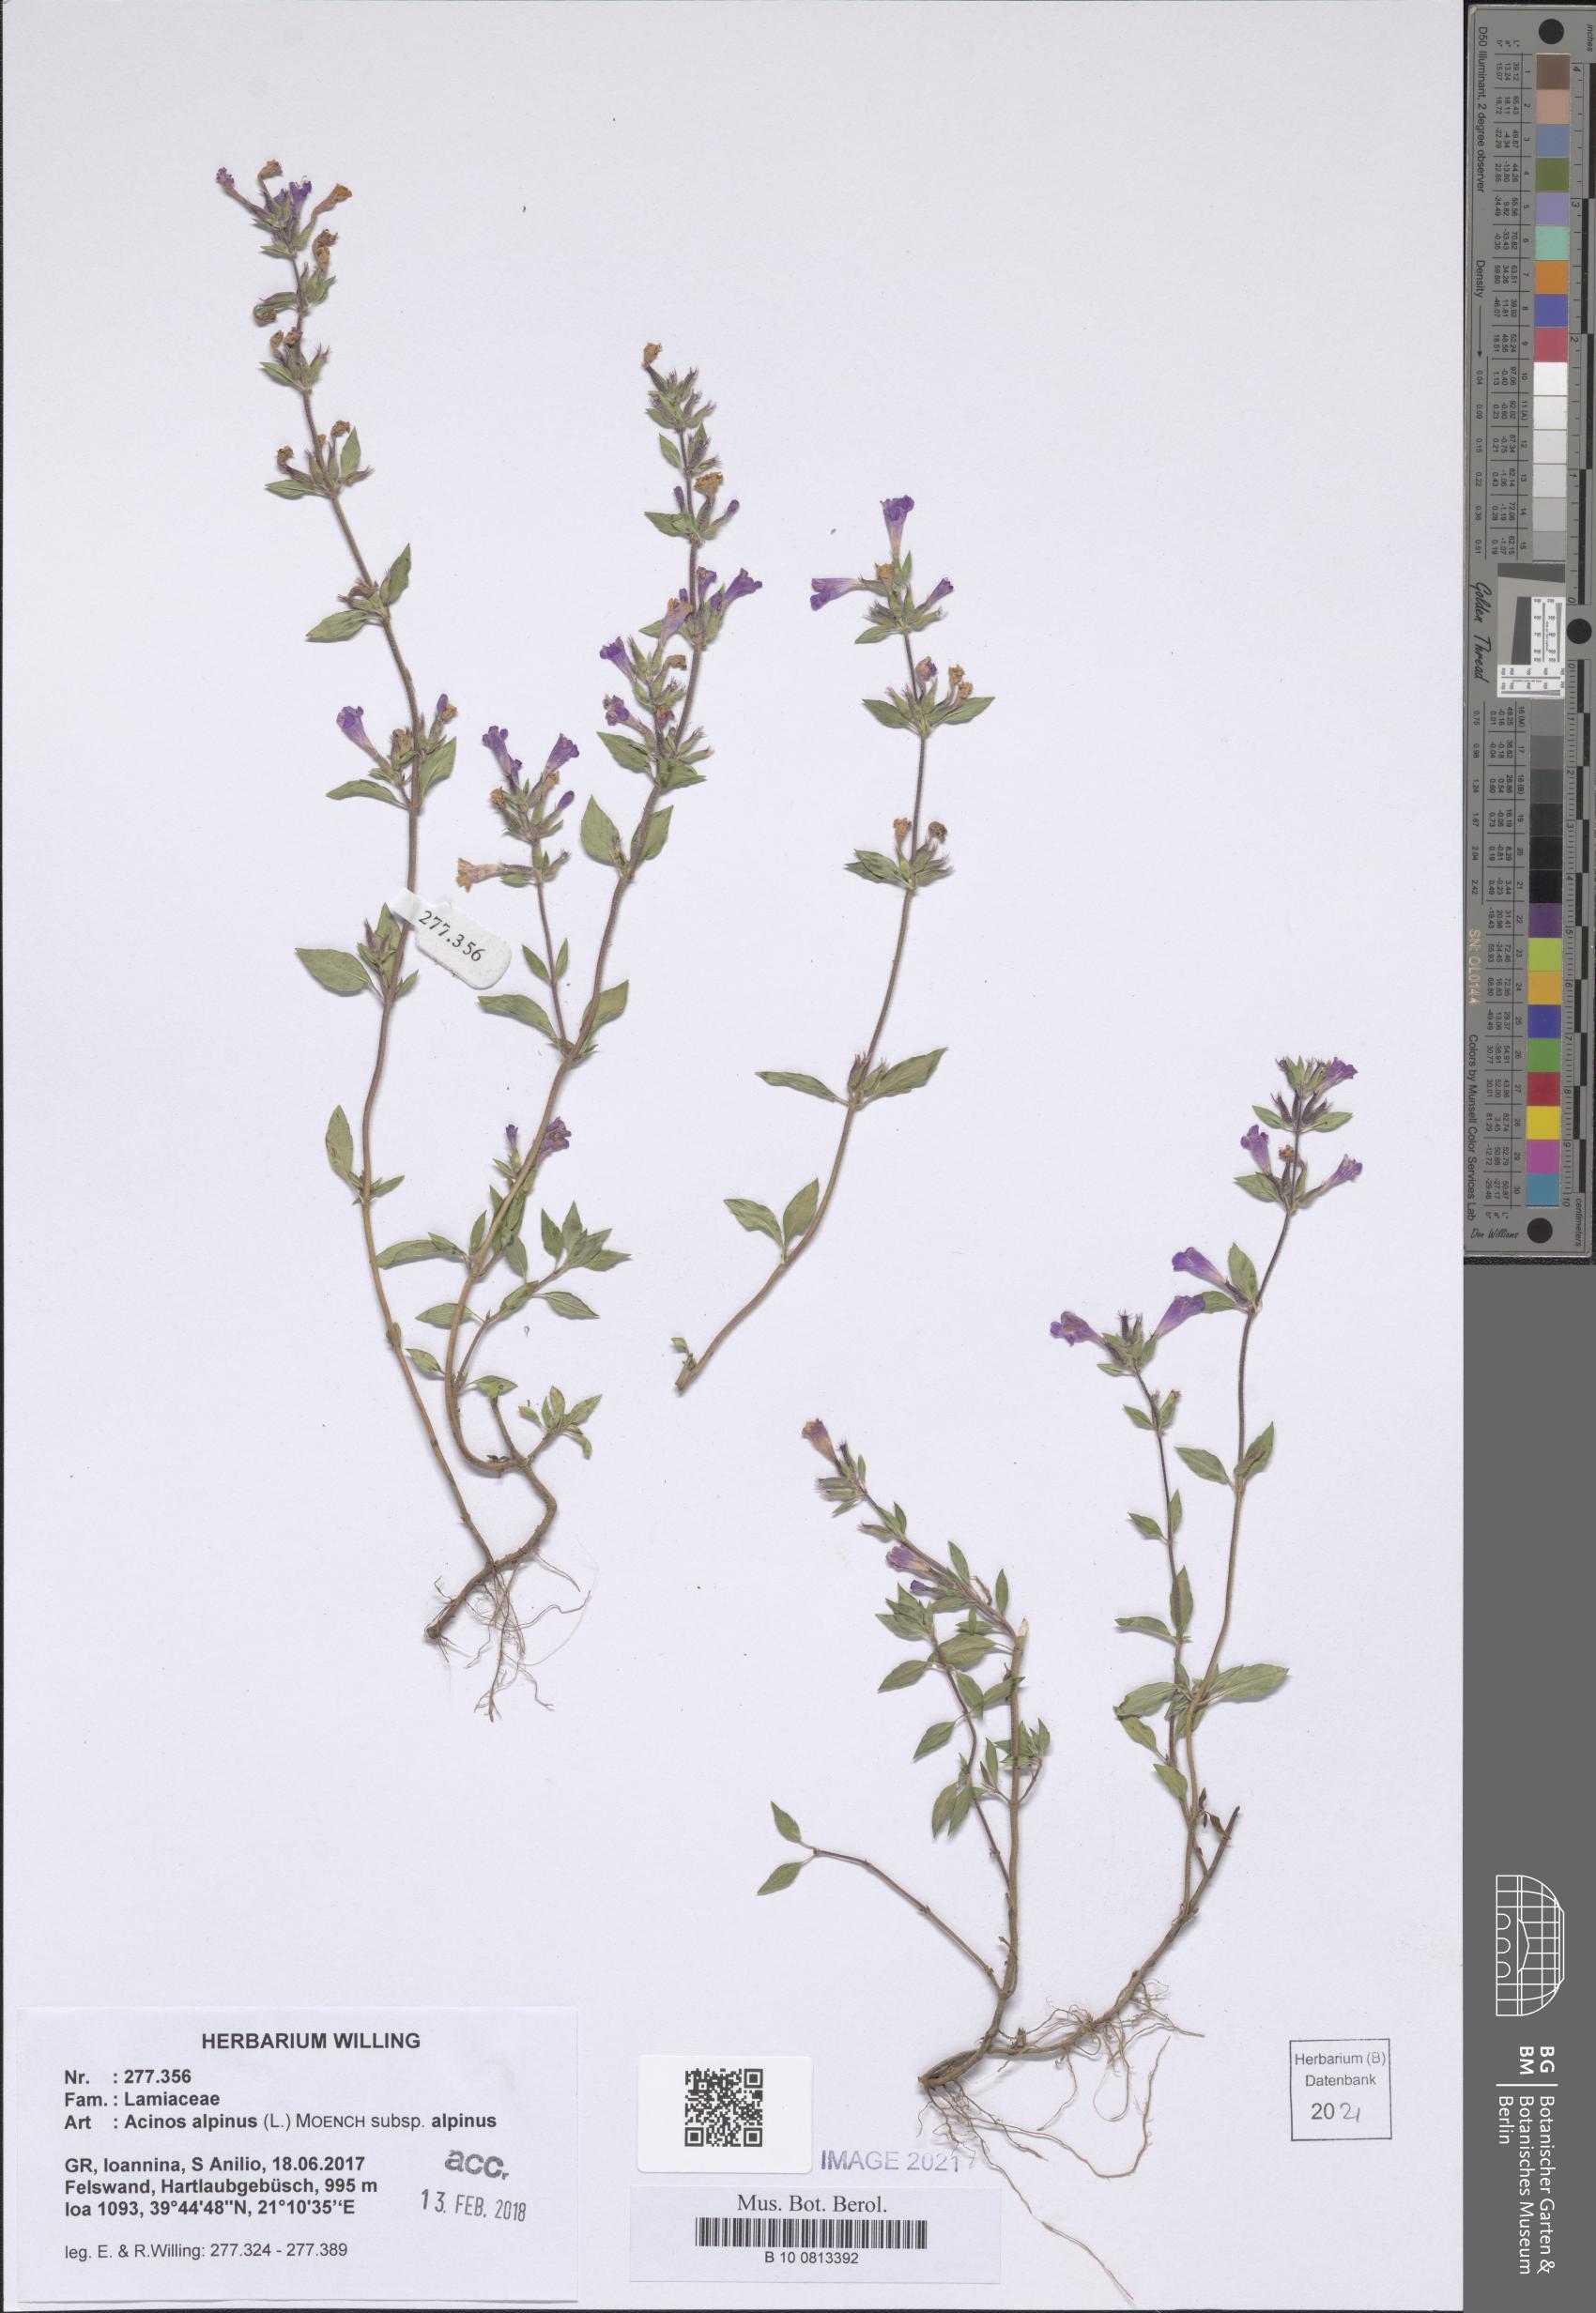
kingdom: Plantae
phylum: Tracheophyta
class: Magnoliopsida
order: Lamiales
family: Lamiaceae
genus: Clinopodium
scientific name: Clinopodium alpinum
